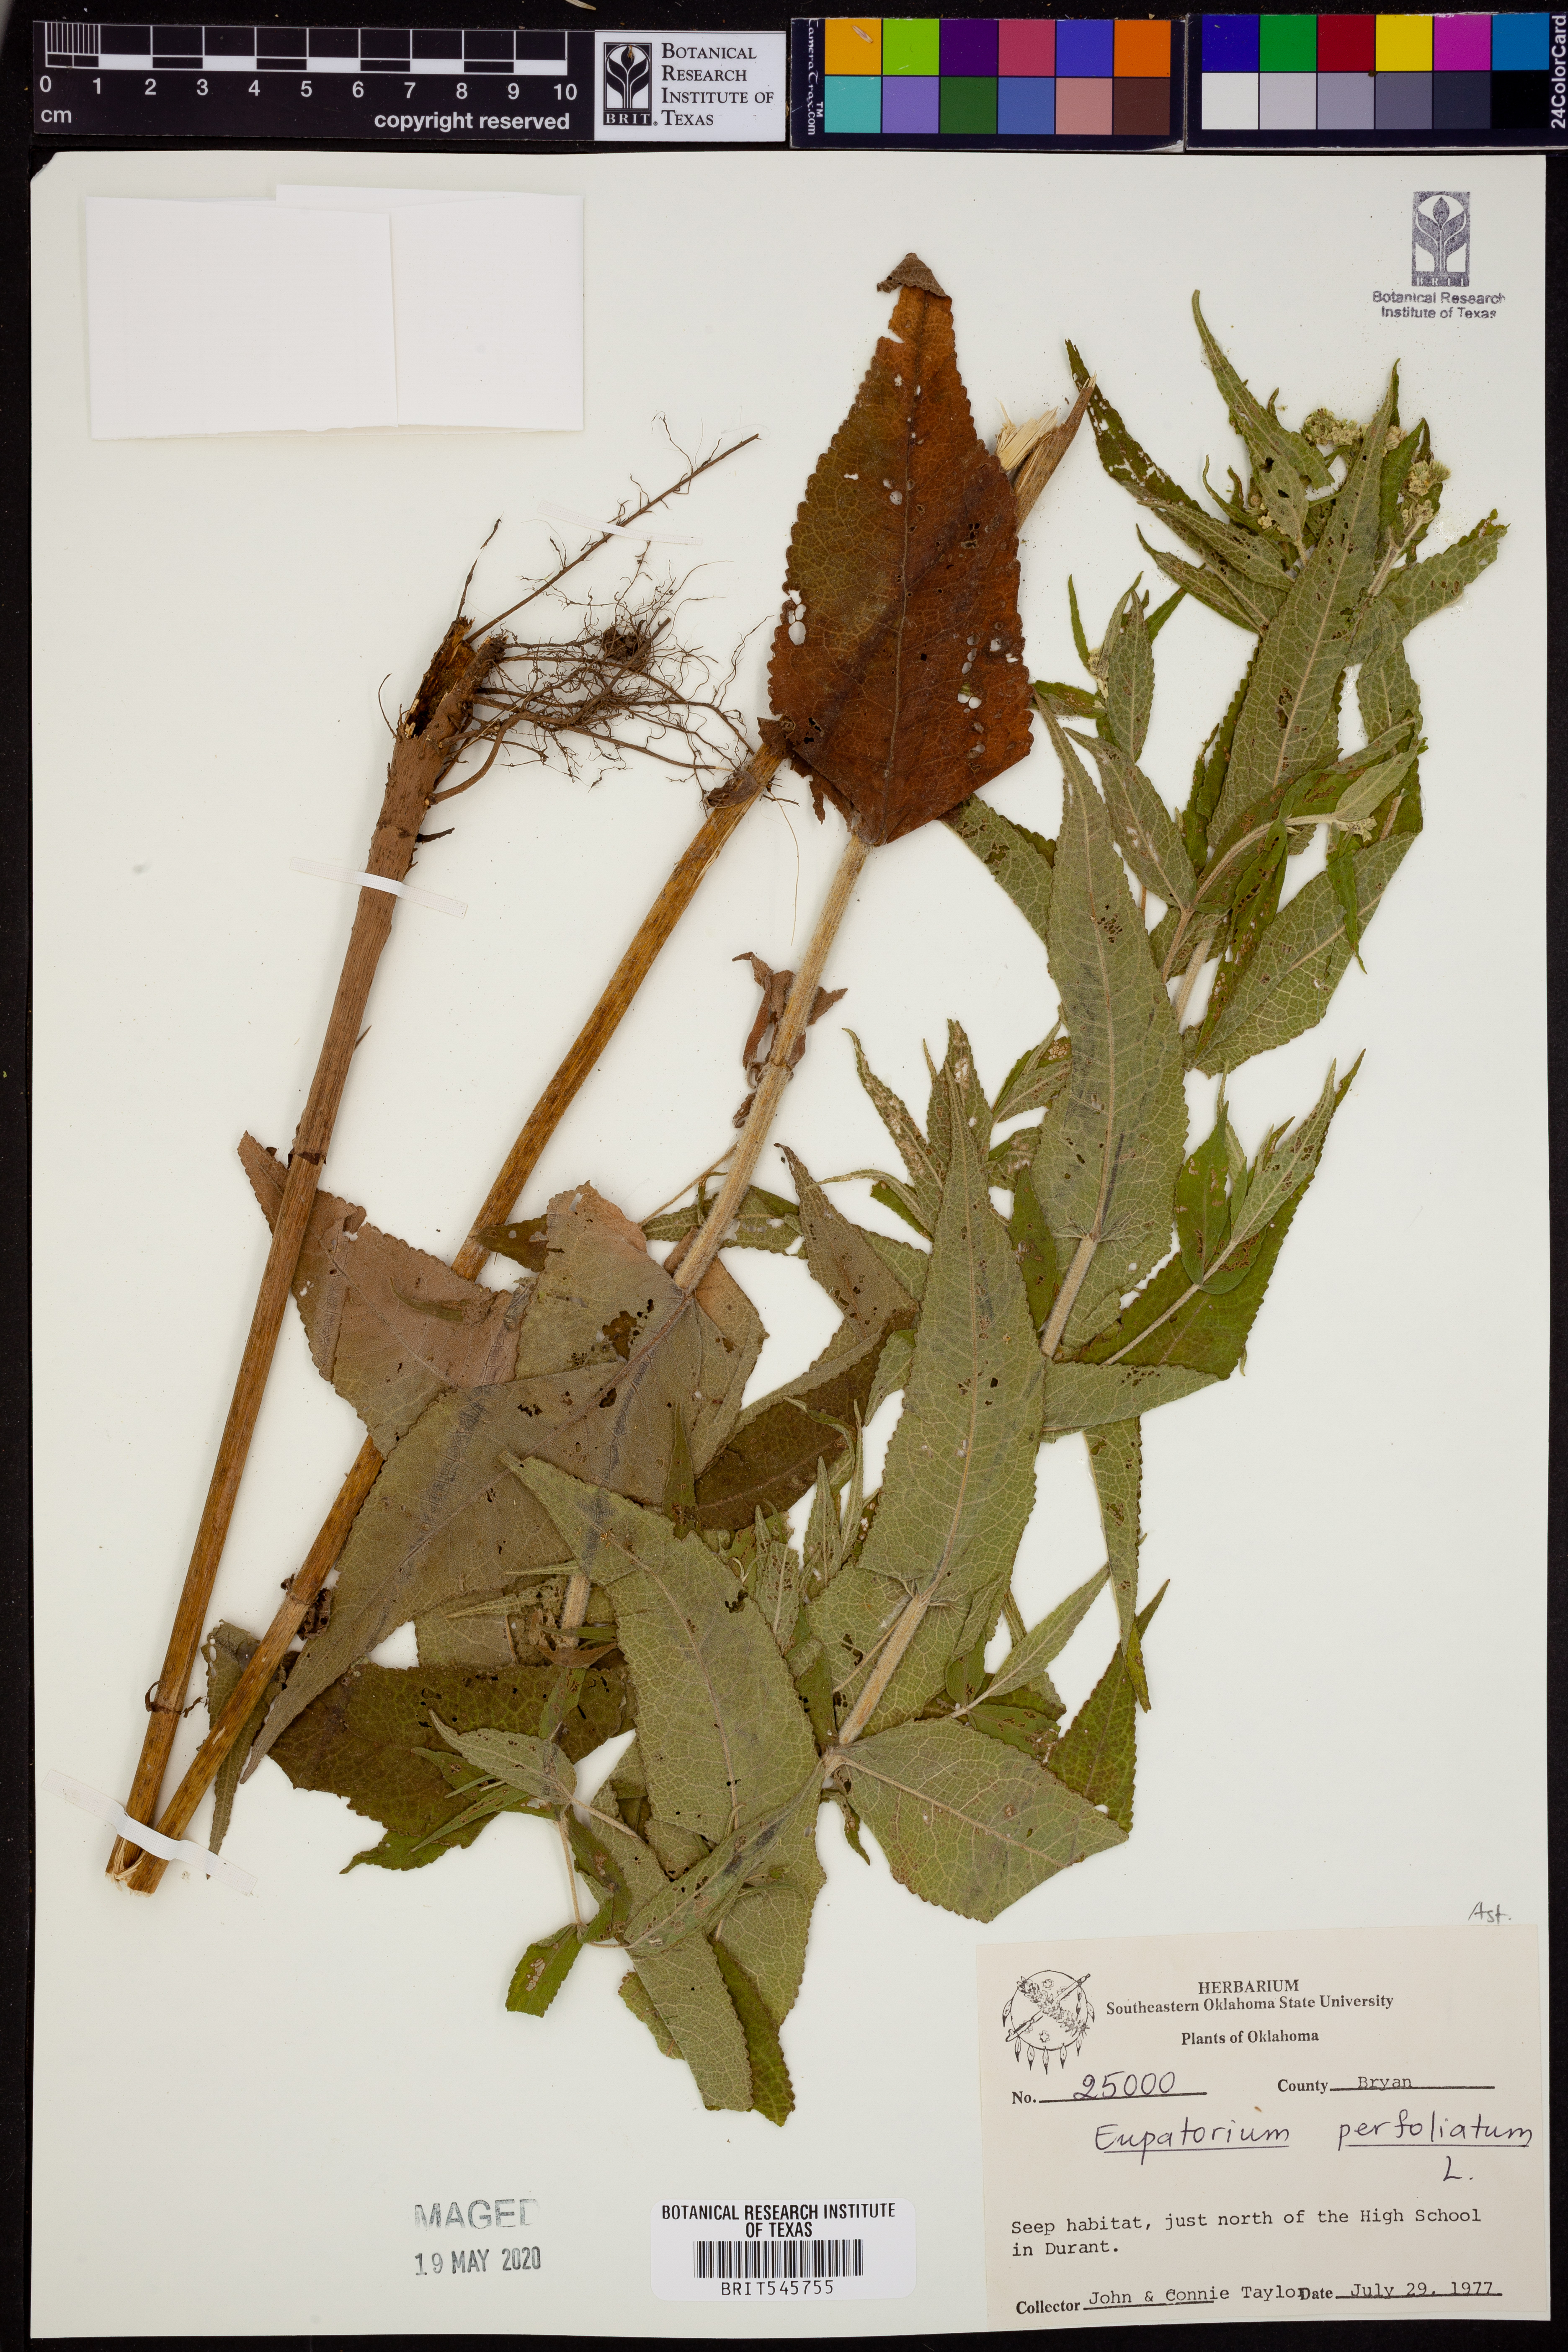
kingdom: Plantae
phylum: Tracheophyta
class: Magnoliopsida
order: Asterales
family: Asteraceae
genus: Eupatorium
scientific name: Eupatorium perfoliatum
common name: Boneset
